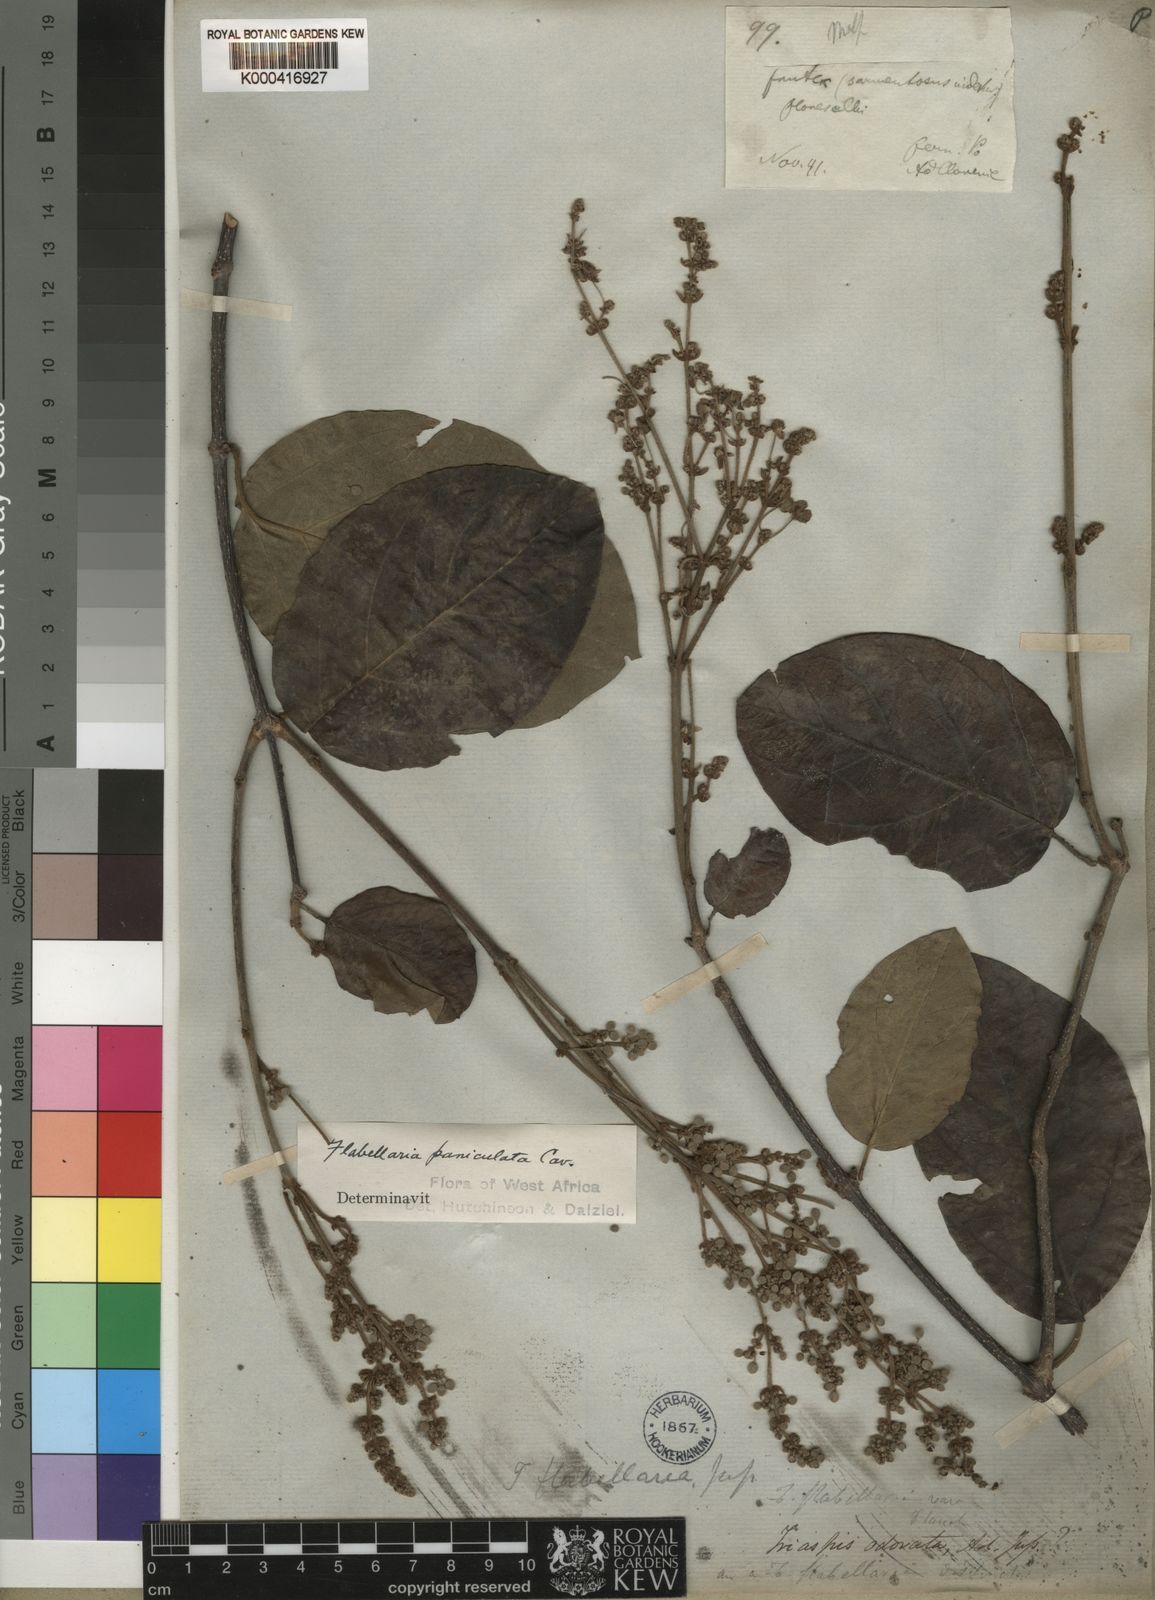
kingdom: Plantae
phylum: Tracheophyta
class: Magnoliopsida
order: Malpighiales
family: Malpighiaceae
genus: Flabellaria
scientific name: Flabellaria paniculata
